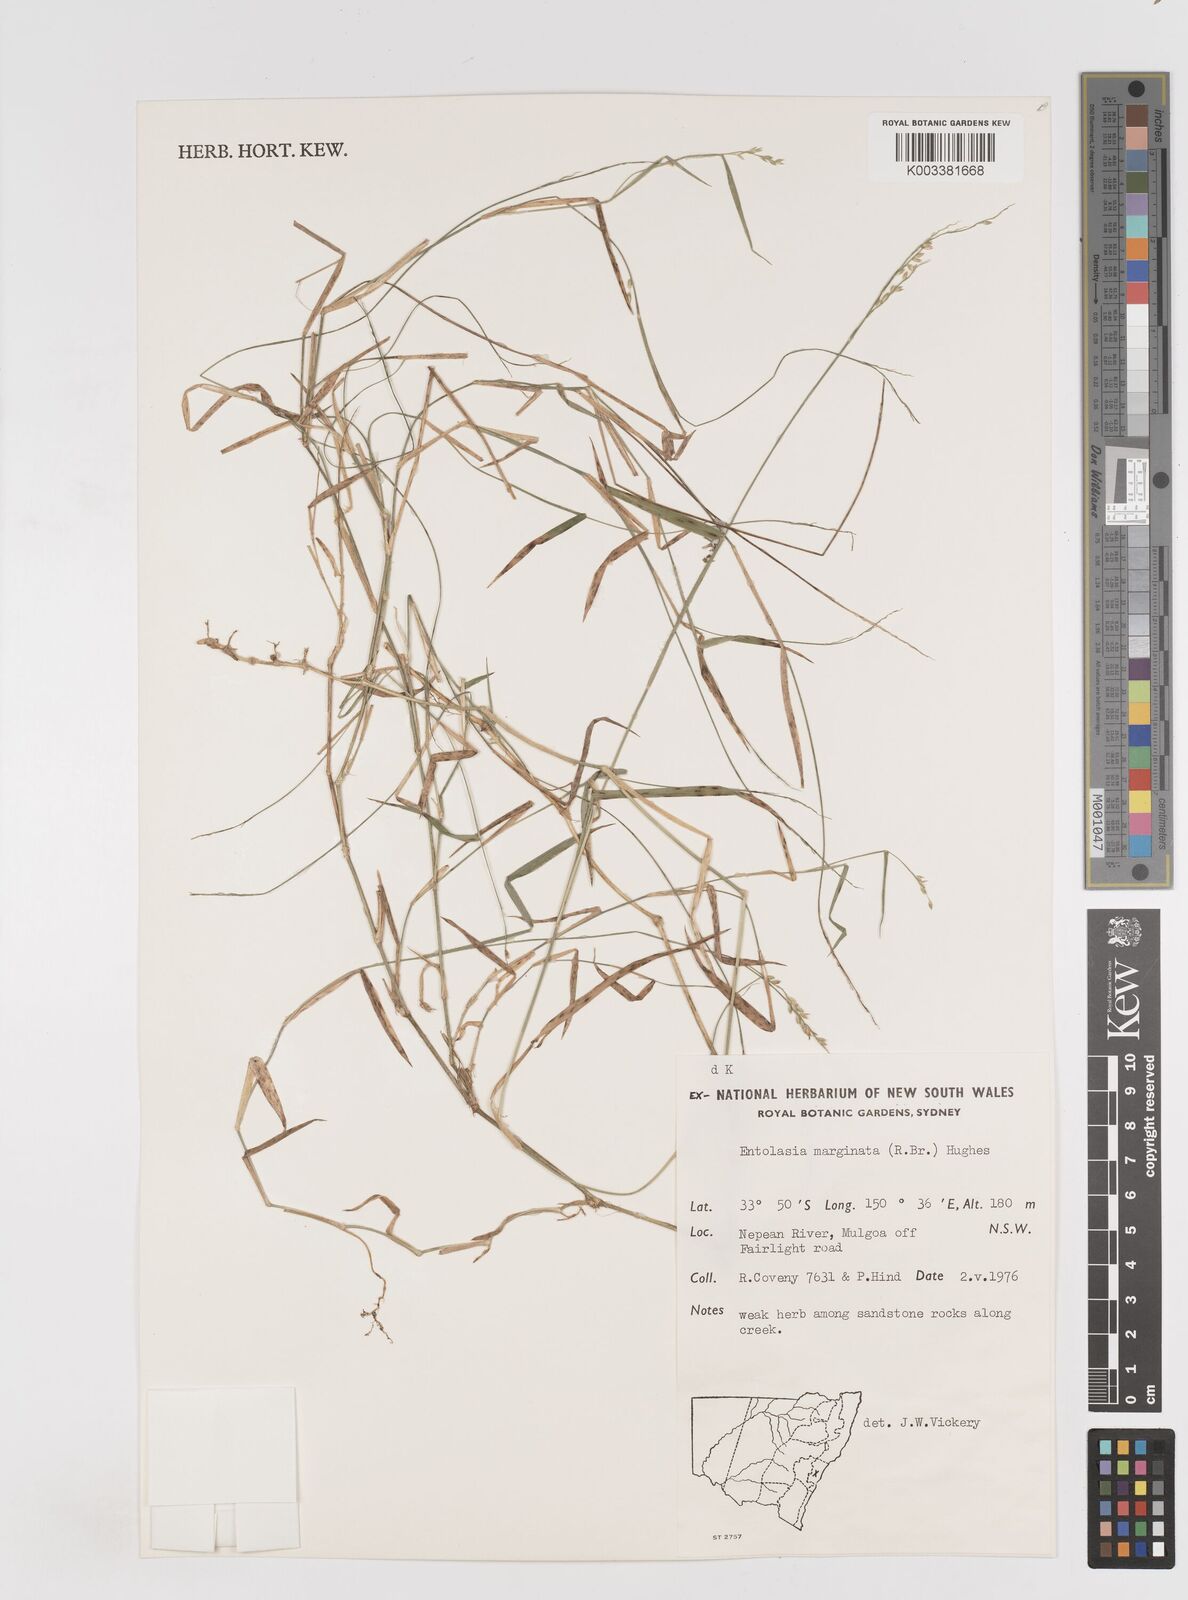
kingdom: Plantae
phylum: Tracheophyta
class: Liliopsida
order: Poales
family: Poaceae
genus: Entolasia
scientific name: Entolasia marginata
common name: Australian panicgrass
